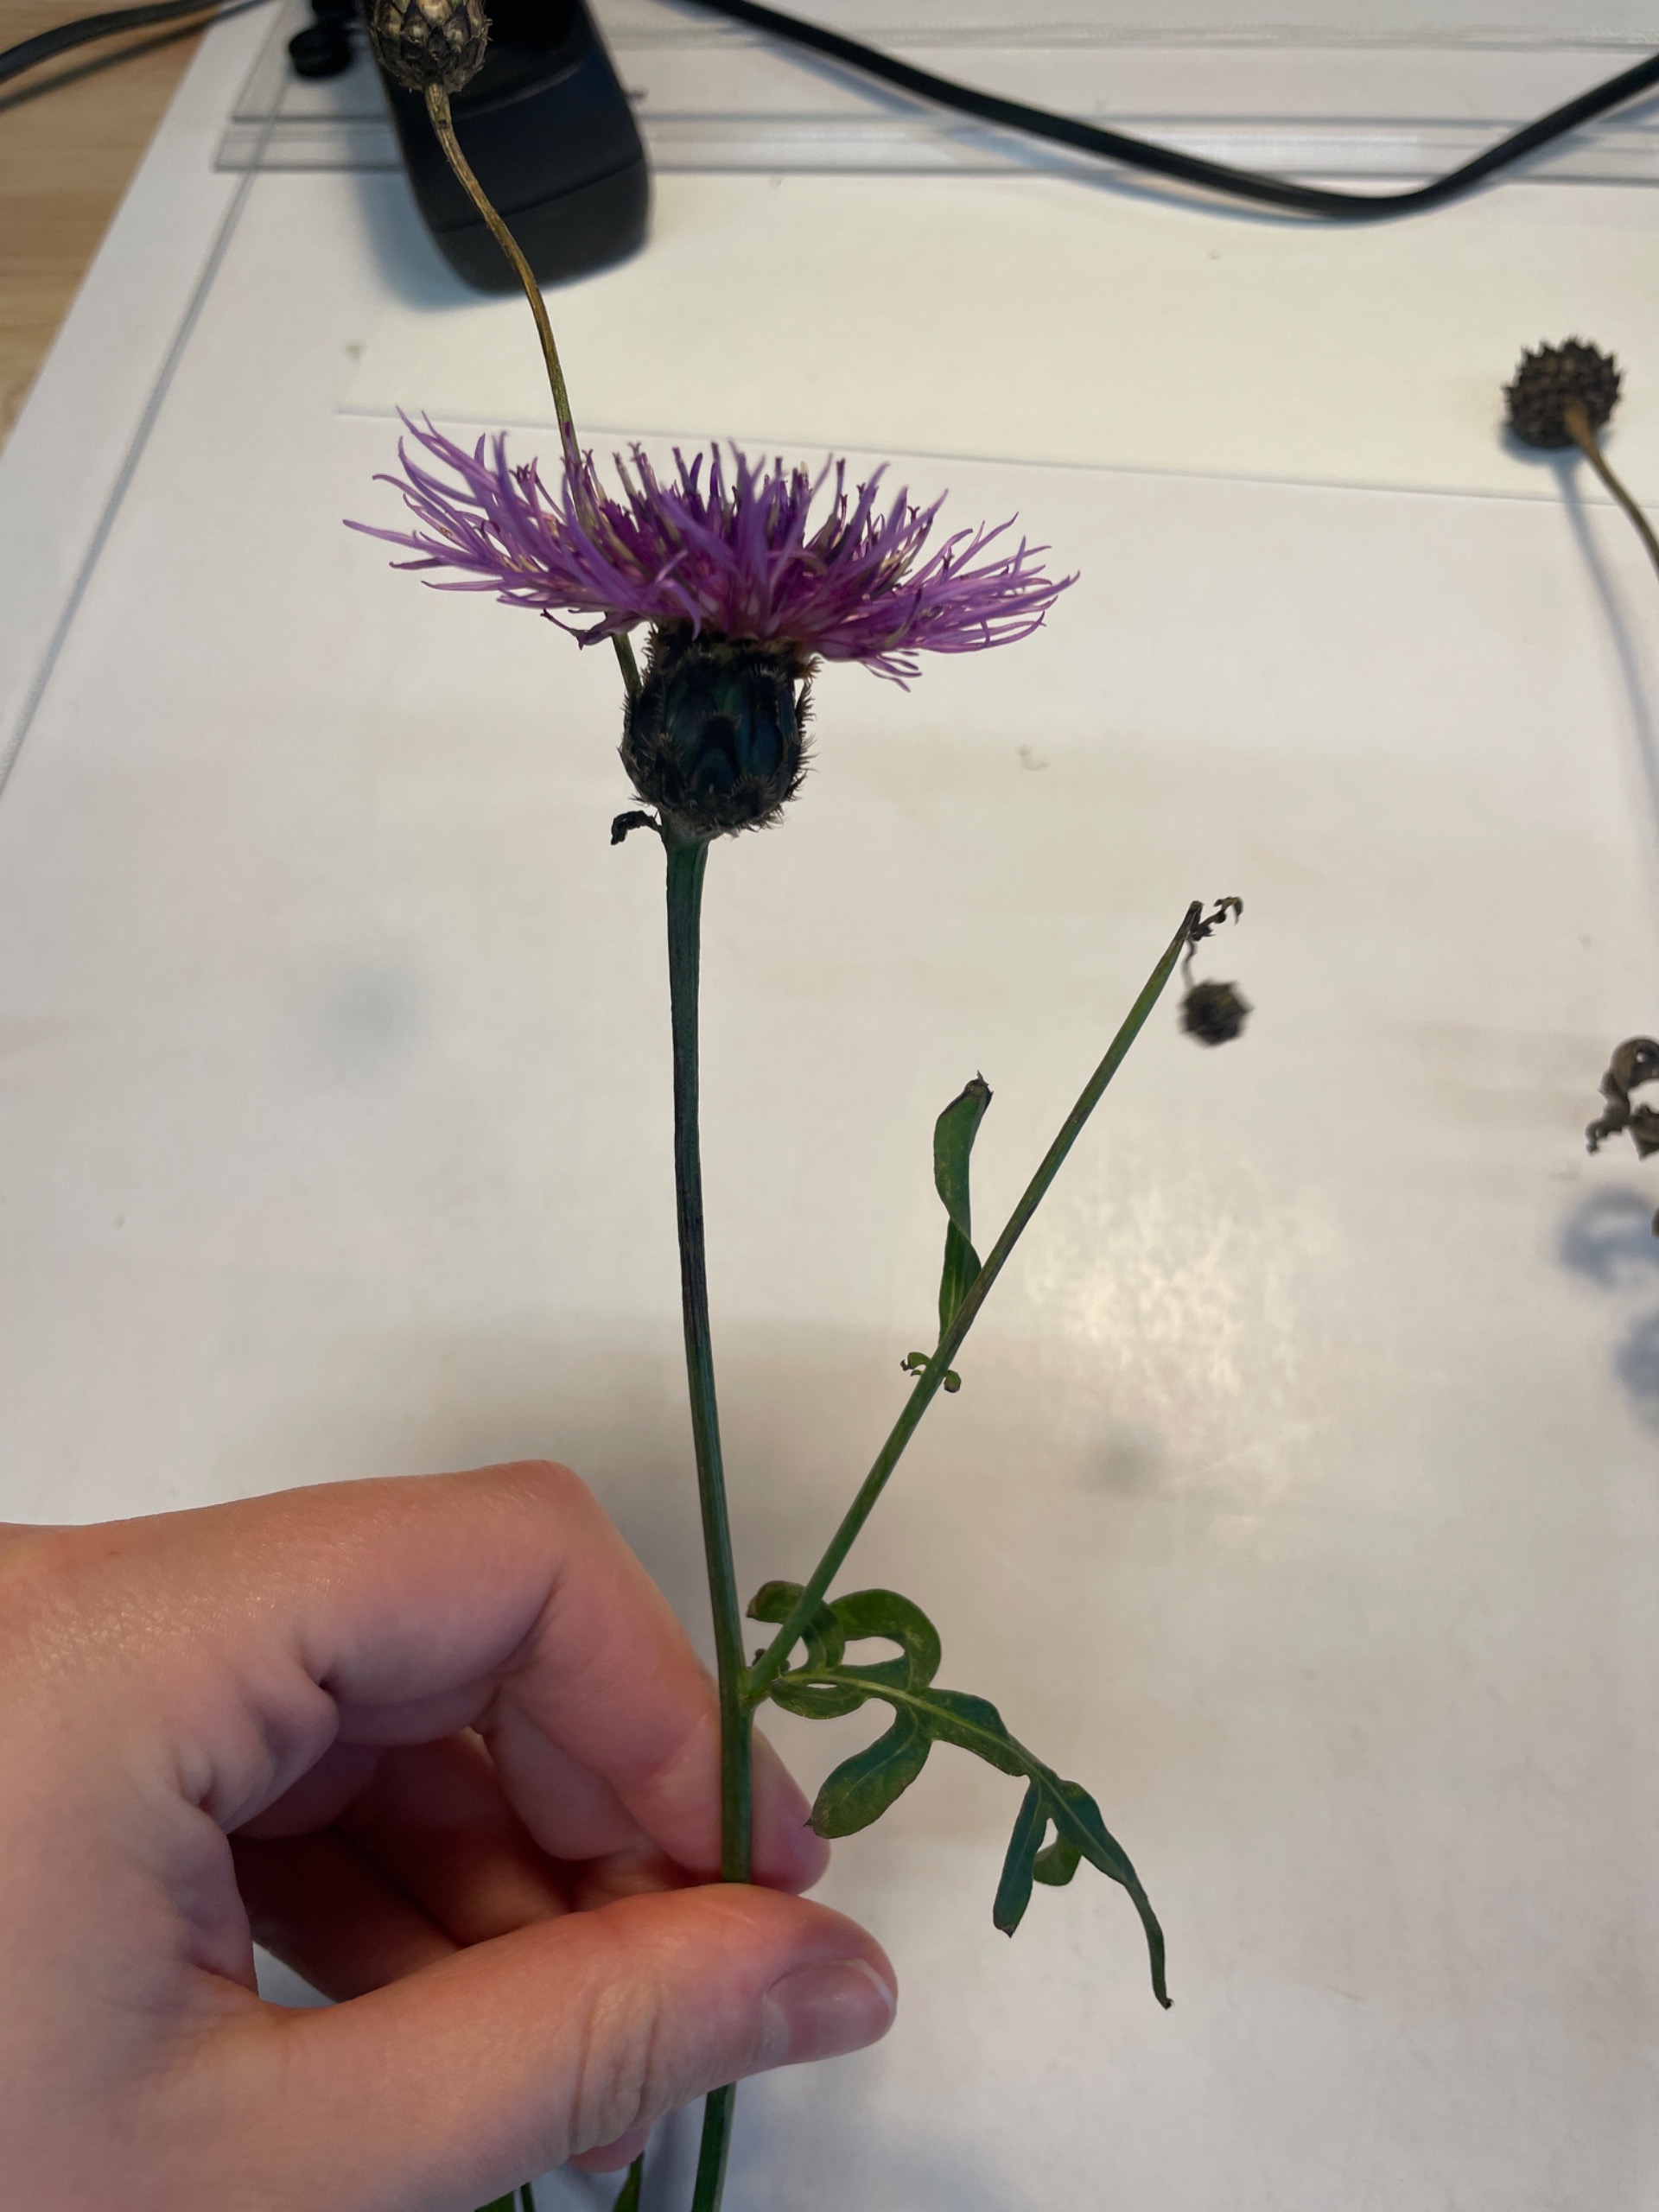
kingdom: Plantae
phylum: Tracheophyta
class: Magnoliopsida
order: Asterales
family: Asteraceae
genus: Centaurea
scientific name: Centaurea scabiosa
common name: Stor knopurt
